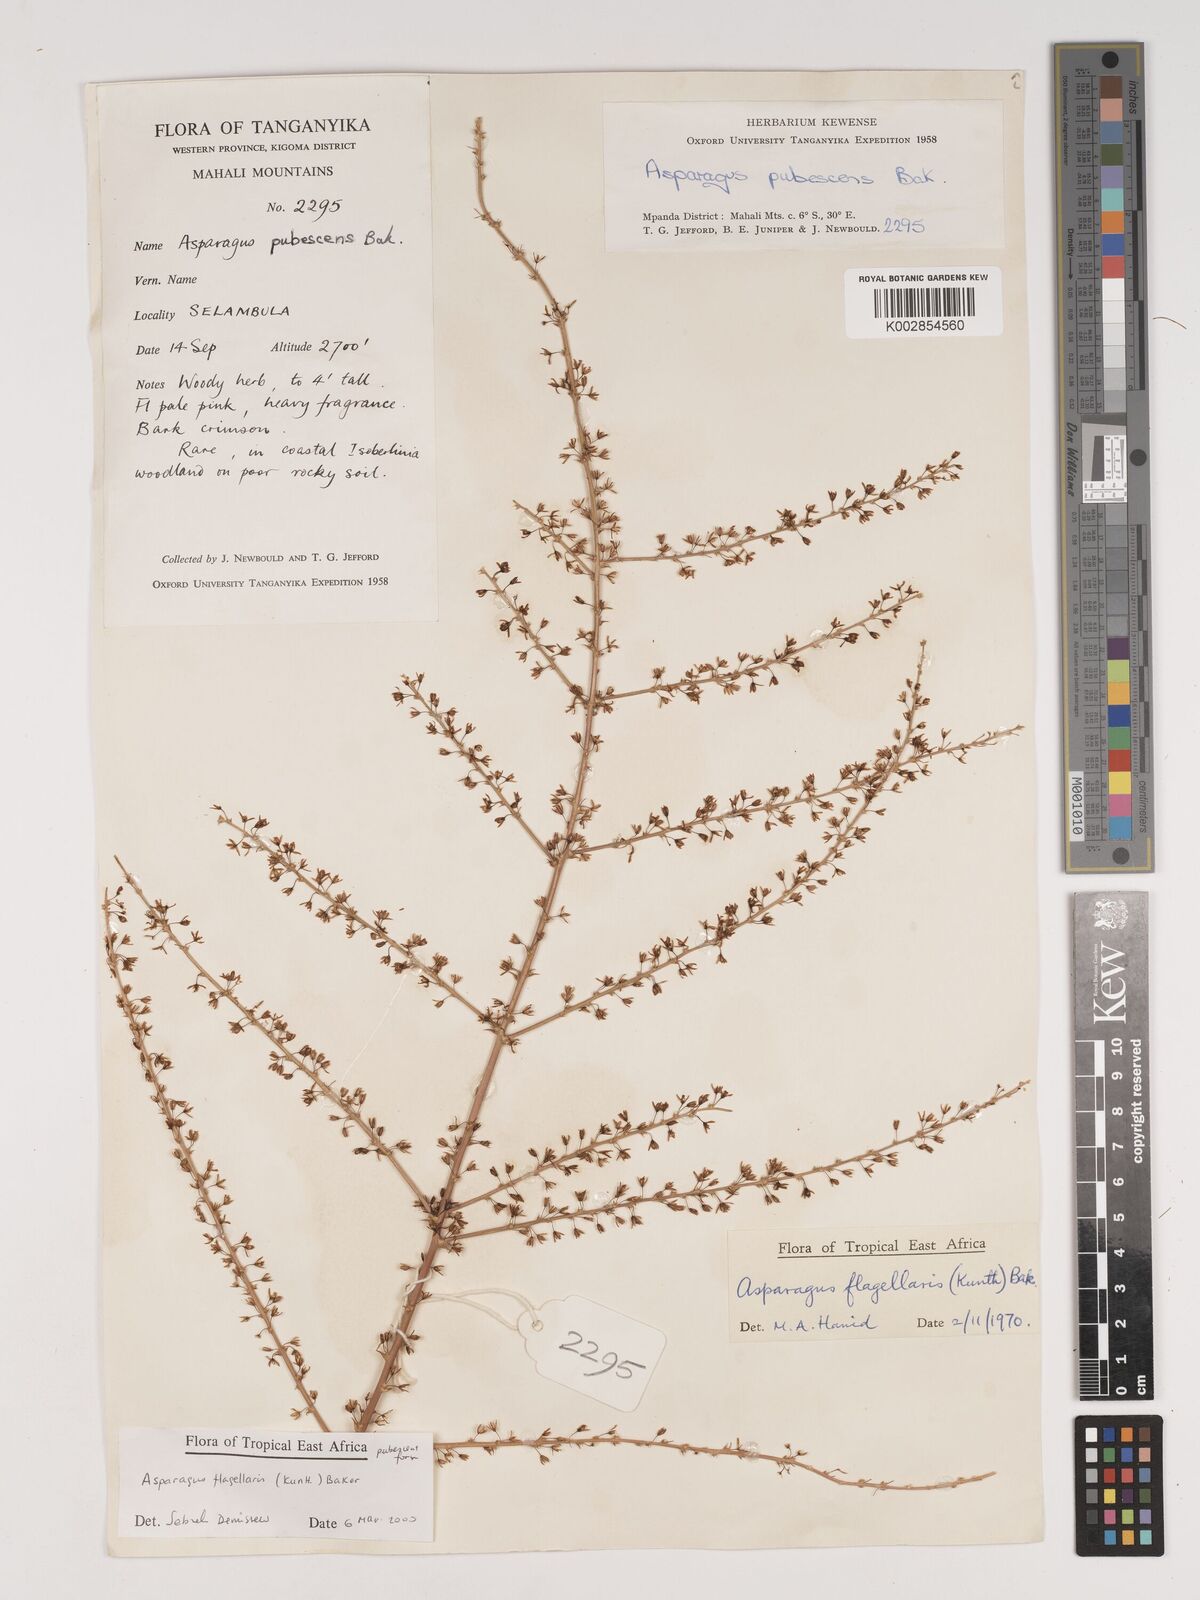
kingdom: Plantae
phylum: Tracheophyta
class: Liliopsida
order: Asparagales
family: Asparagaceae
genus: Asparagus
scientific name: Asparagus flagellaris
